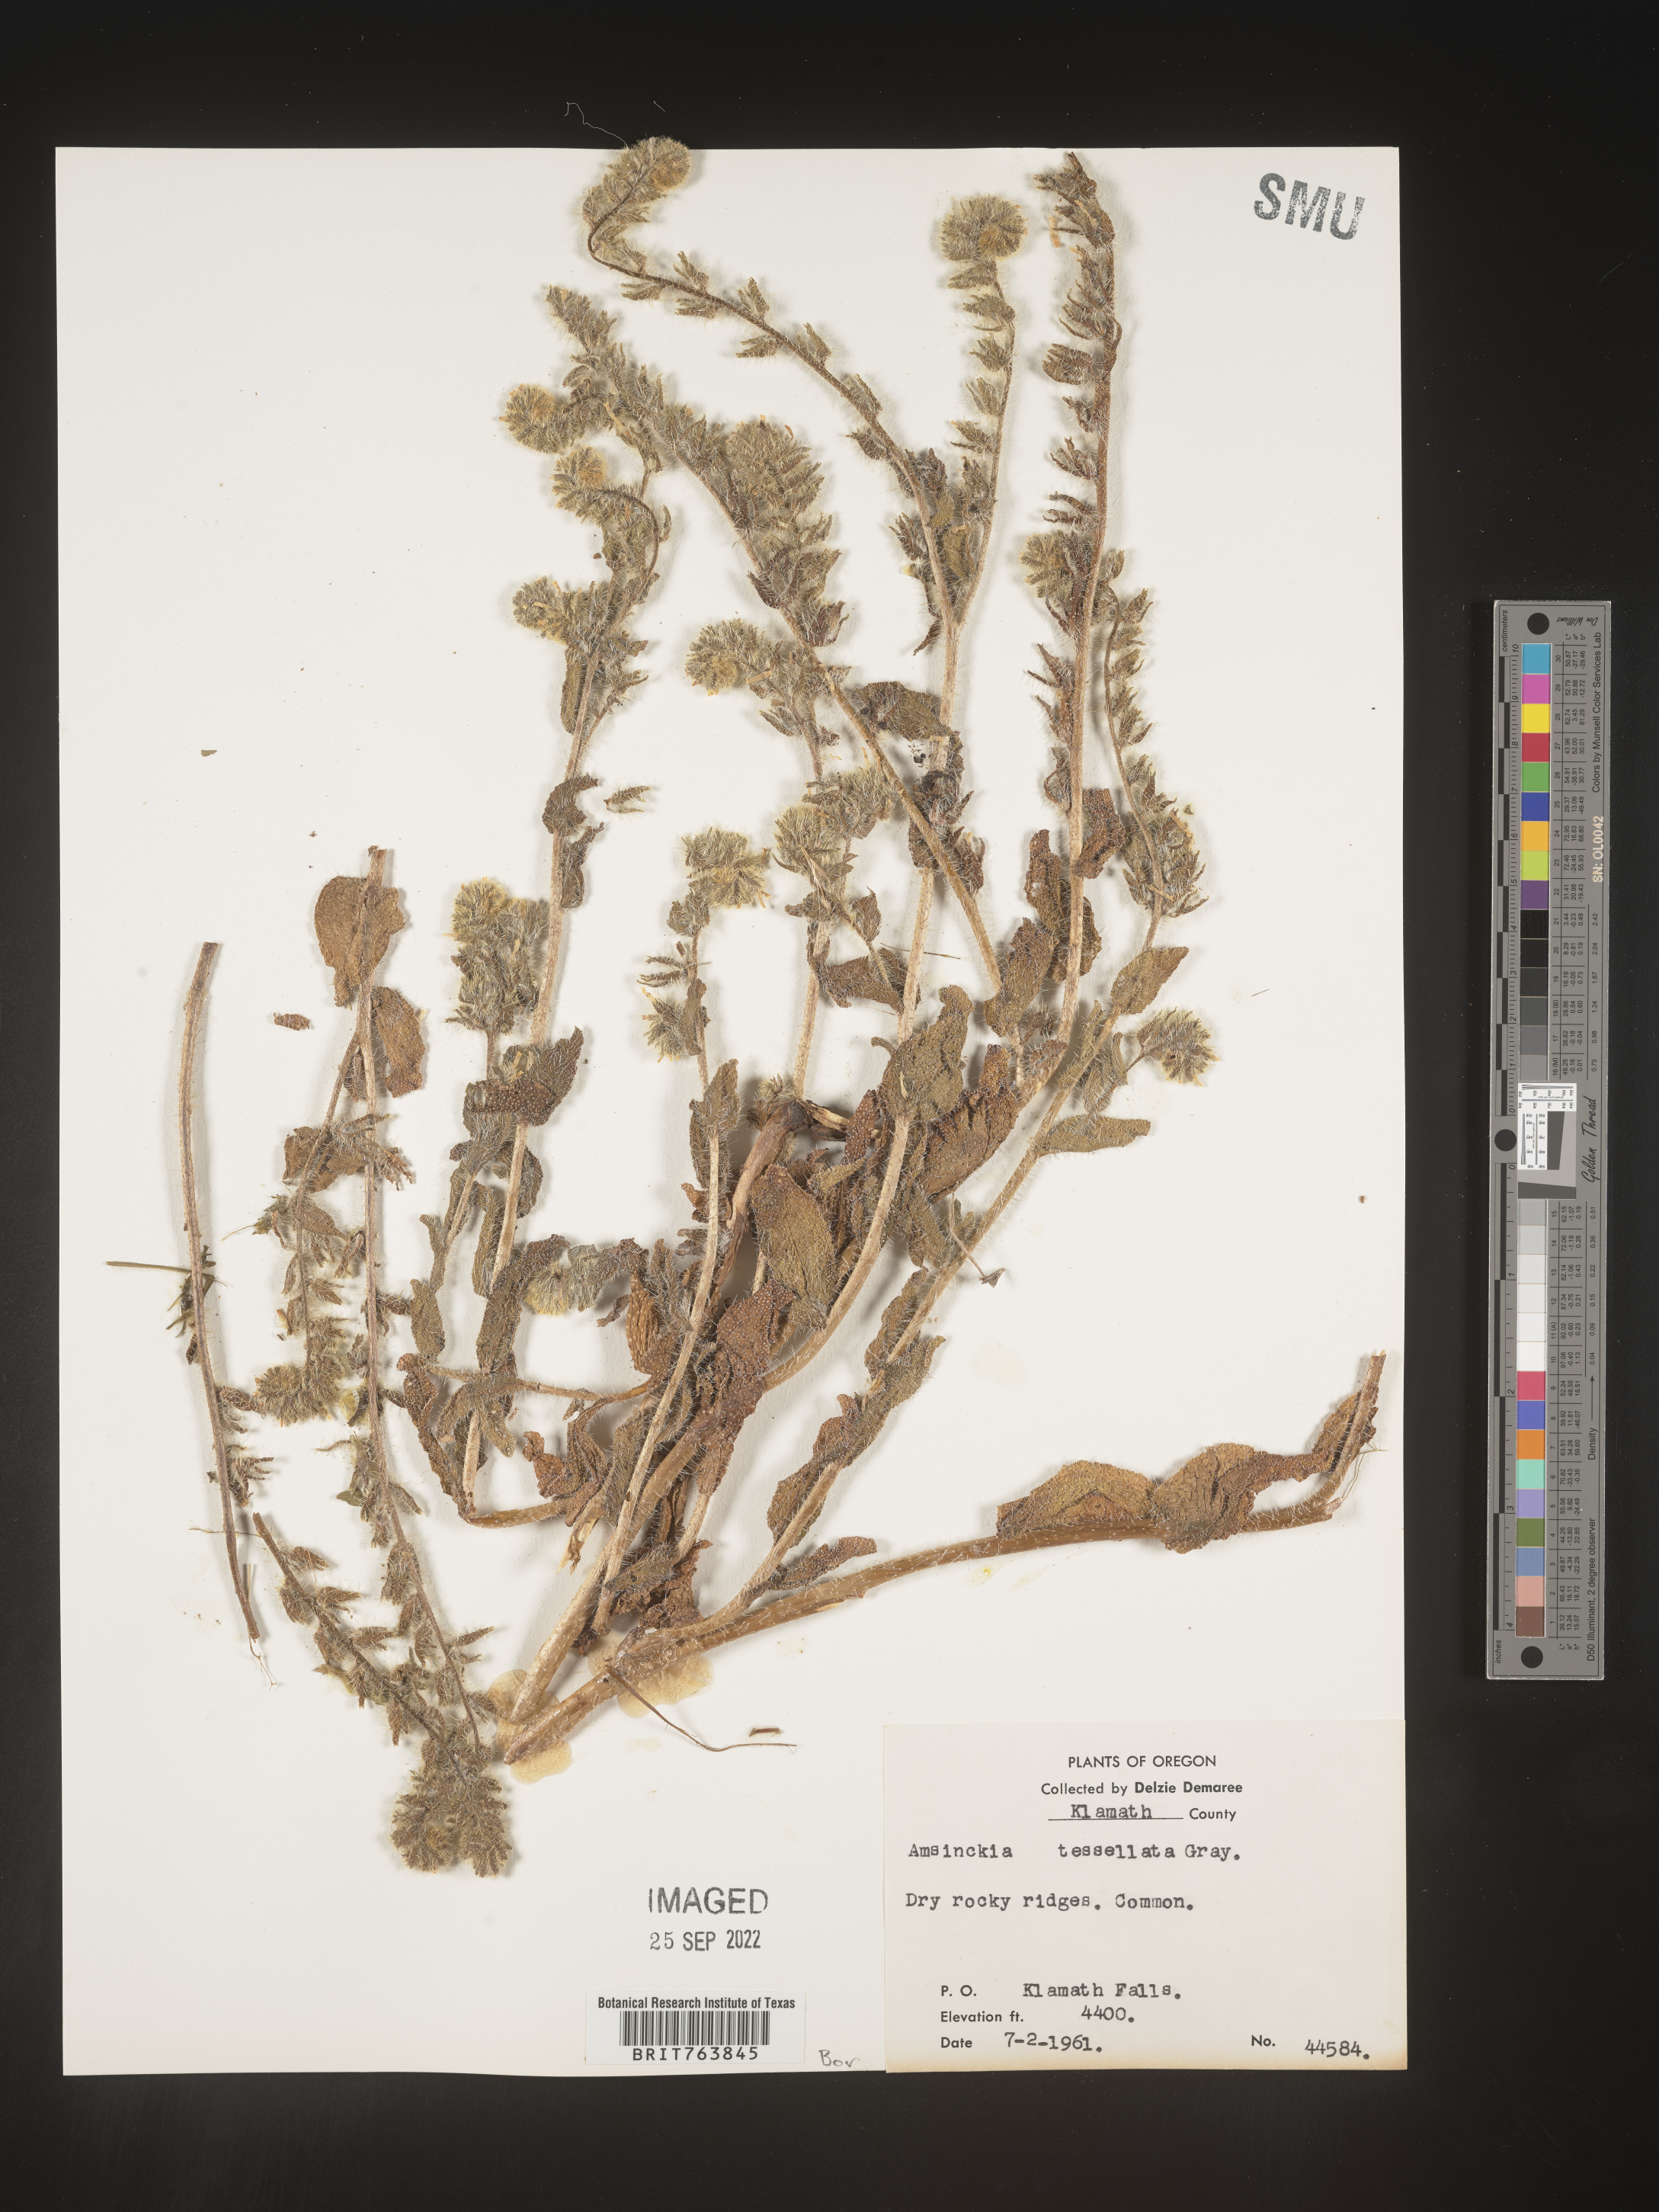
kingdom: Plantae
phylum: Tracheophyta
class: Magnoliopsida
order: Boraginales
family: Boraginaceae
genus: Amsinckia
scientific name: Amsinckia
